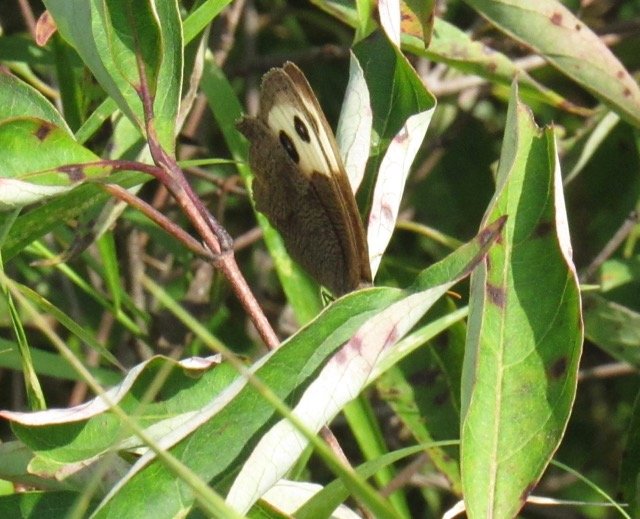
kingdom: Animalia
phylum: Arthropoda
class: Insecta
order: Lepidoptera
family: Nymphalidae
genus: Cercyonis
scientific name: Cercyonis pegala
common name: Common Wood-Nymph
